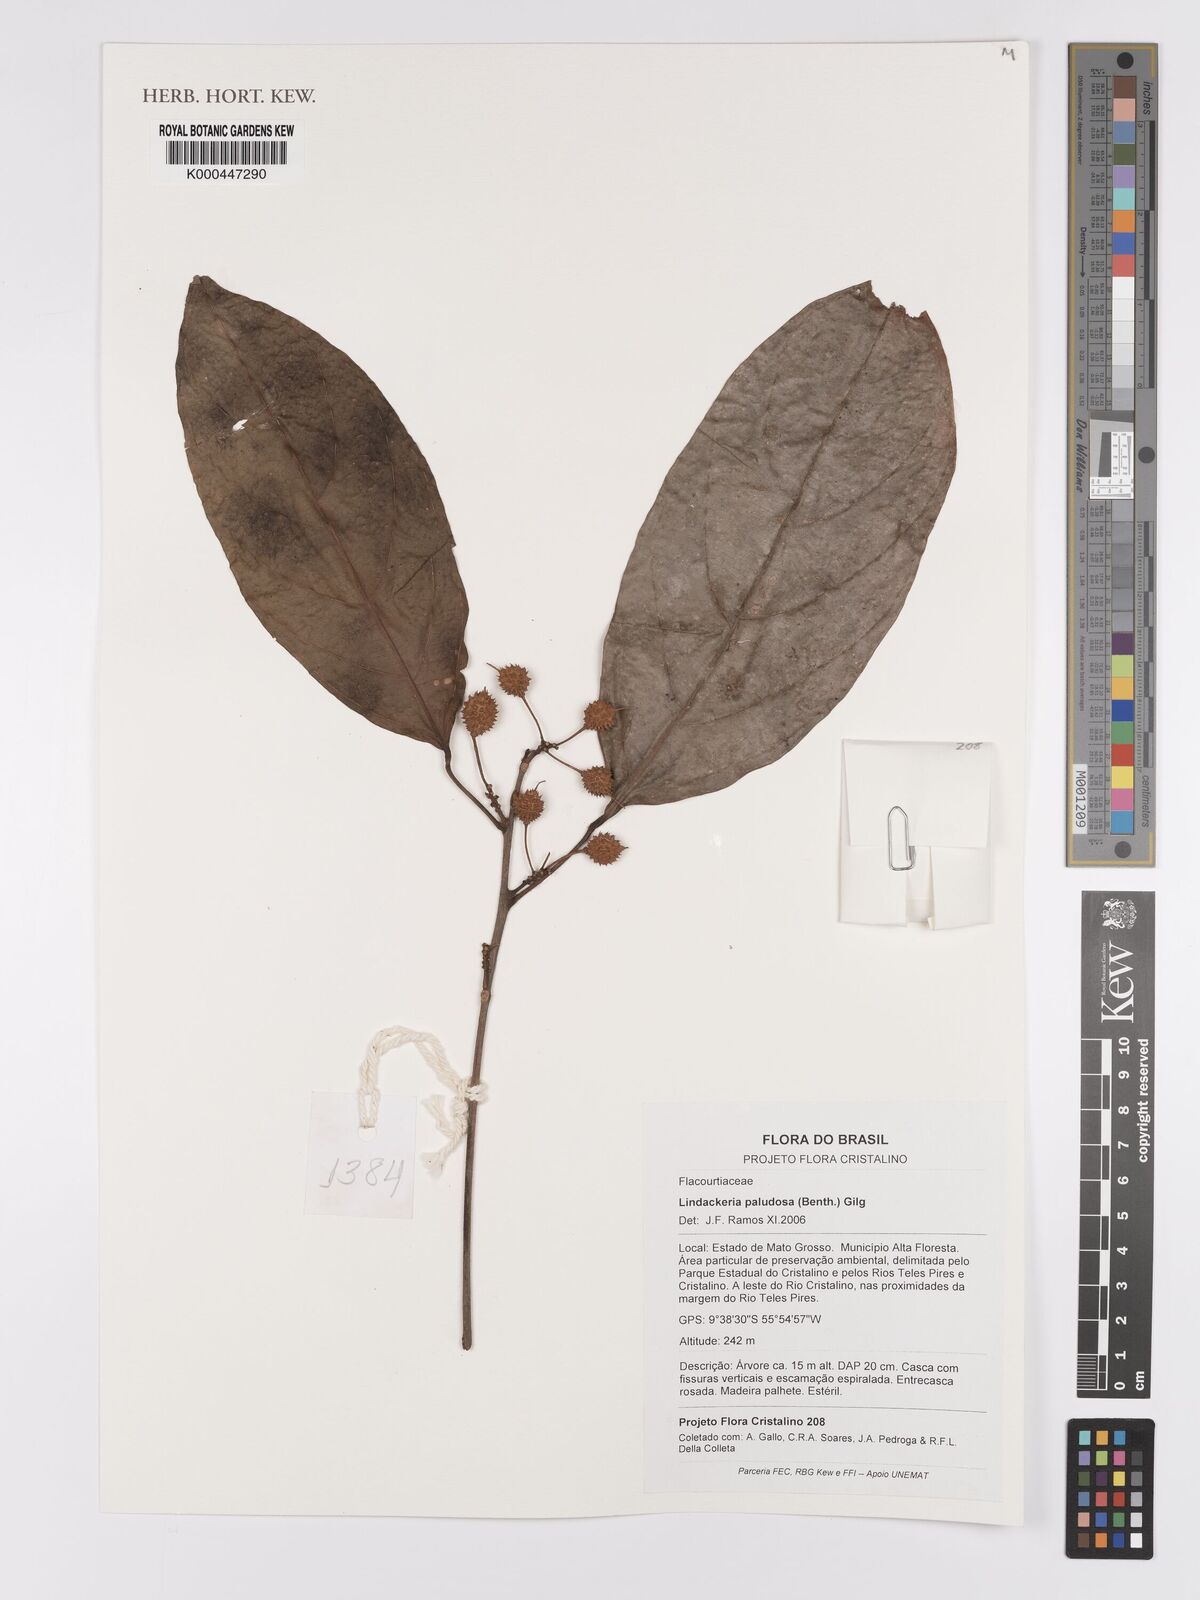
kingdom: Plantae
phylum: Tracheophyta
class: Magnoliopsida
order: Malpighiales
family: Achariaceae
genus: Lindackeria
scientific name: Lindackeria paludosa
